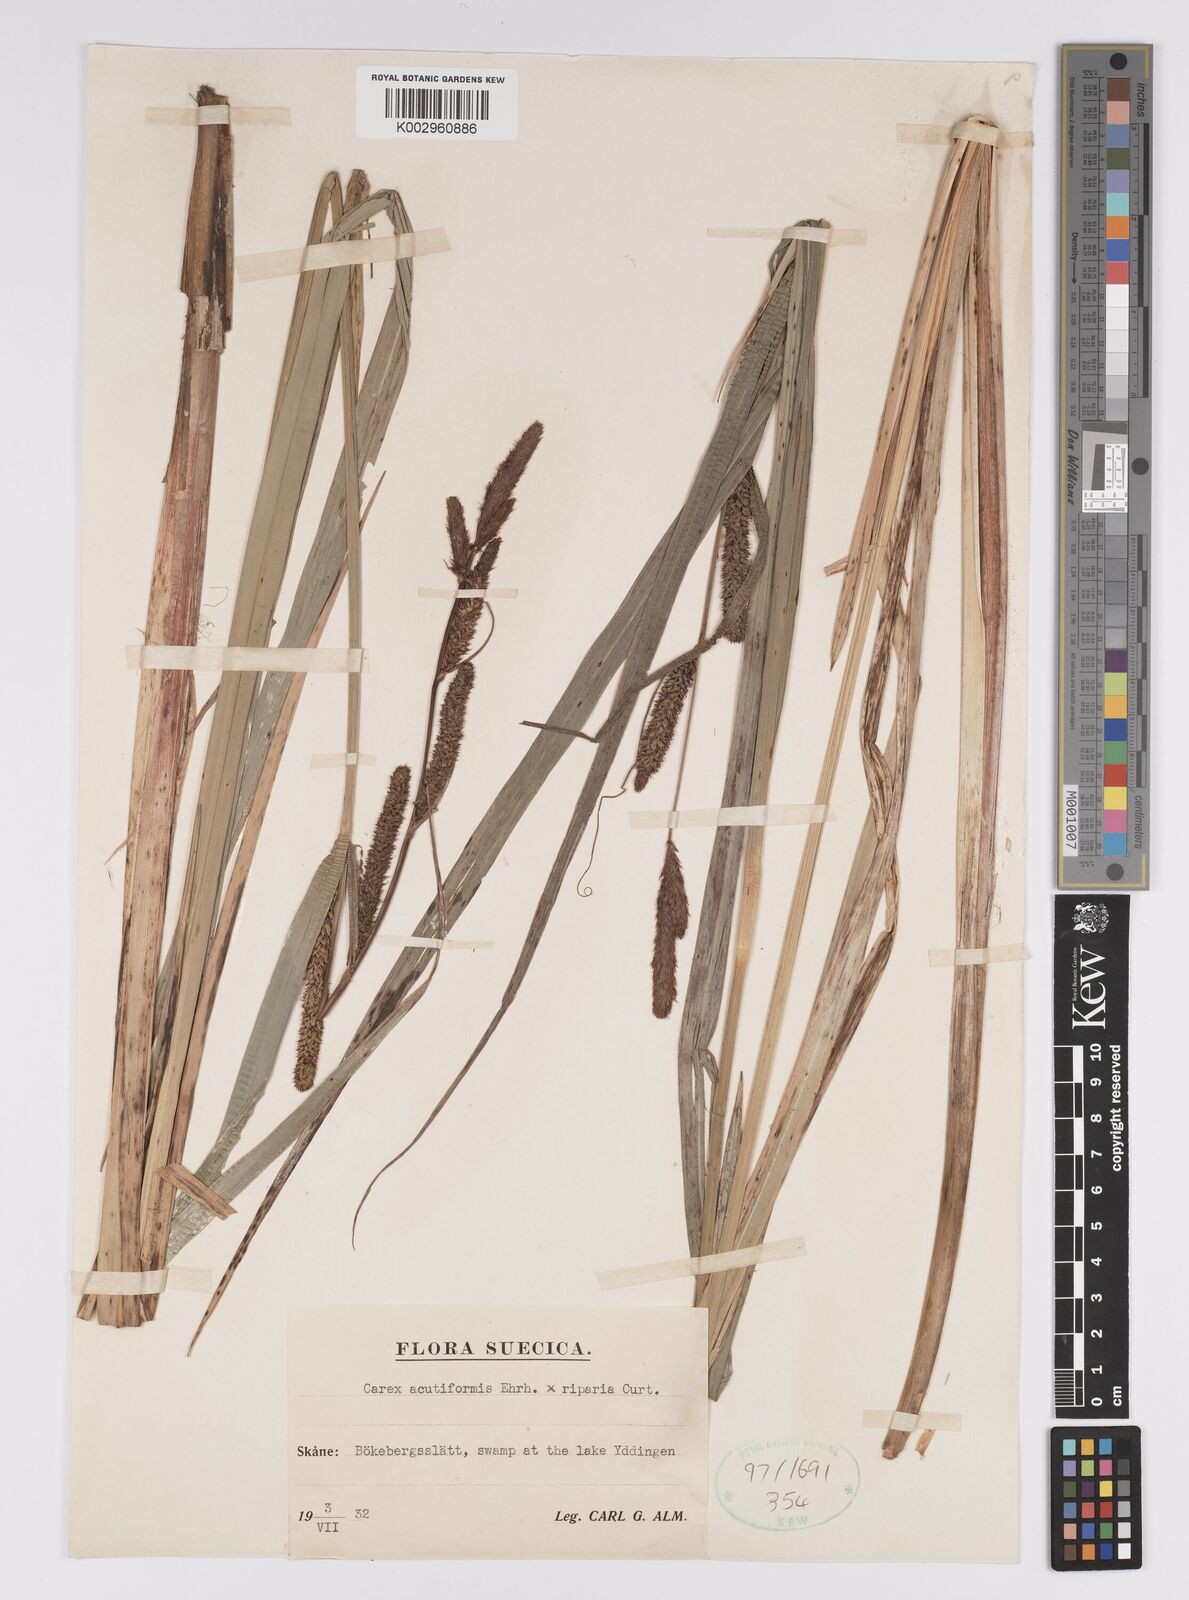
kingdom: Plantae
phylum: Tracheophyta
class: Liliopsida
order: Poales
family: Cyperaceae
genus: Carex
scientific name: Carex acutiformis
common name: Lesser pond-sedge
